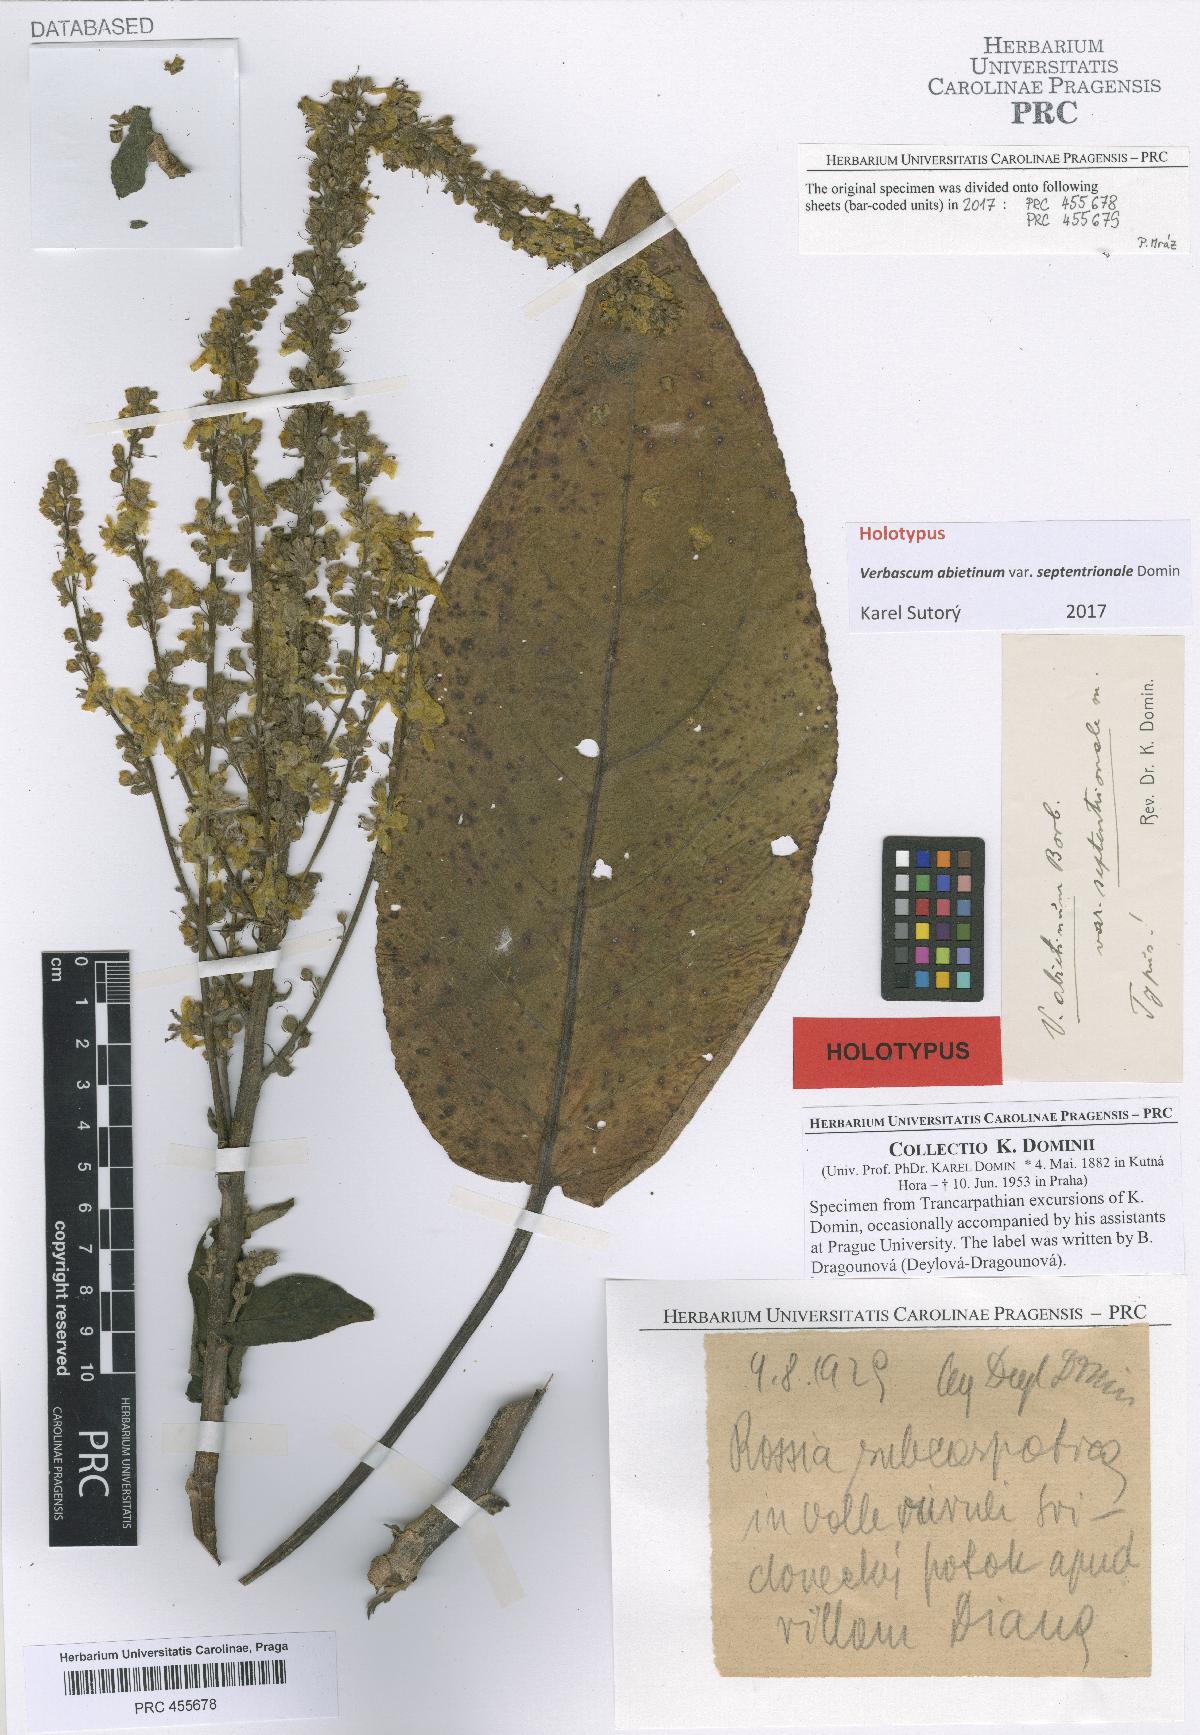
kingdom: Plantae
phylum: Tracheophyta
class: Magnoliopsida
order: Lamiales
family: Scrophulariaceae
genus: Verbascum
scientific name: Verbascum nigrum
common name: Dark mullein
